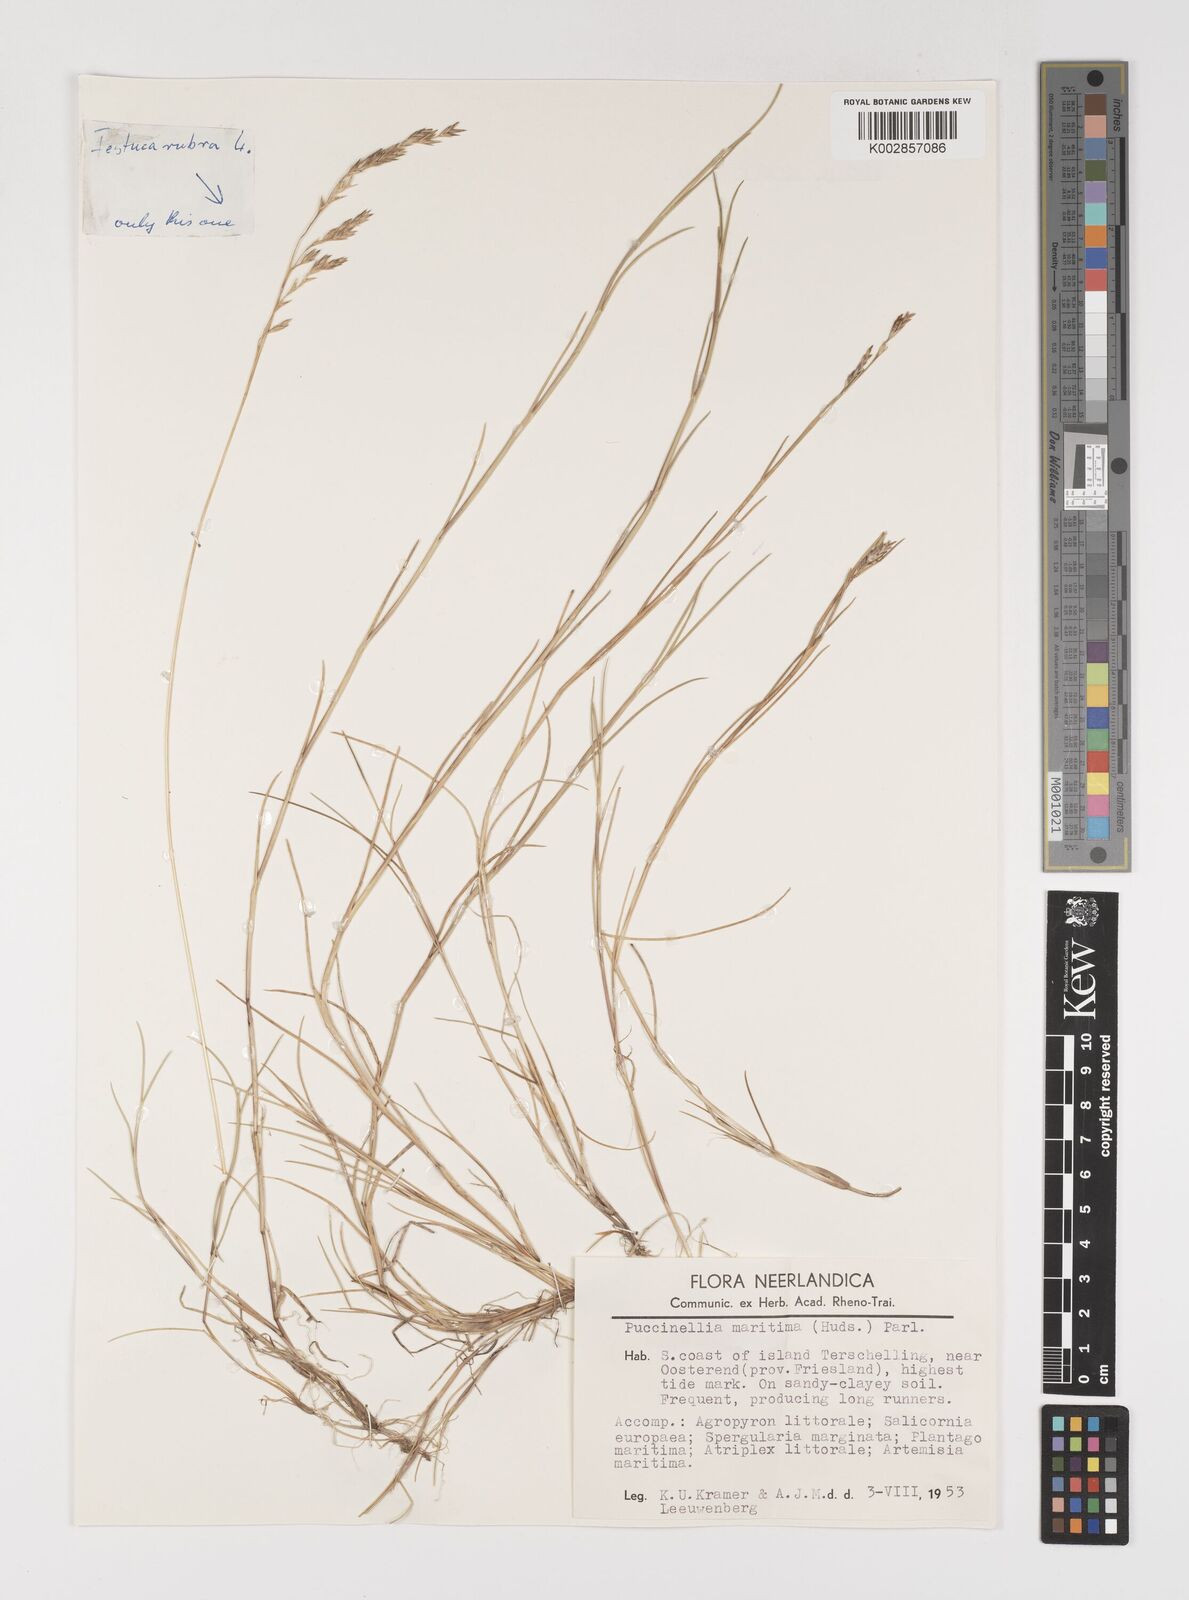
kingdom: Plantae
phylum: Tracheophyta
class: Liliopsida
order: Poales
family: Poaceae
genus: Puccinellia
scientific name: Puccinellia maritima
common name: Common saltmarsh grass
